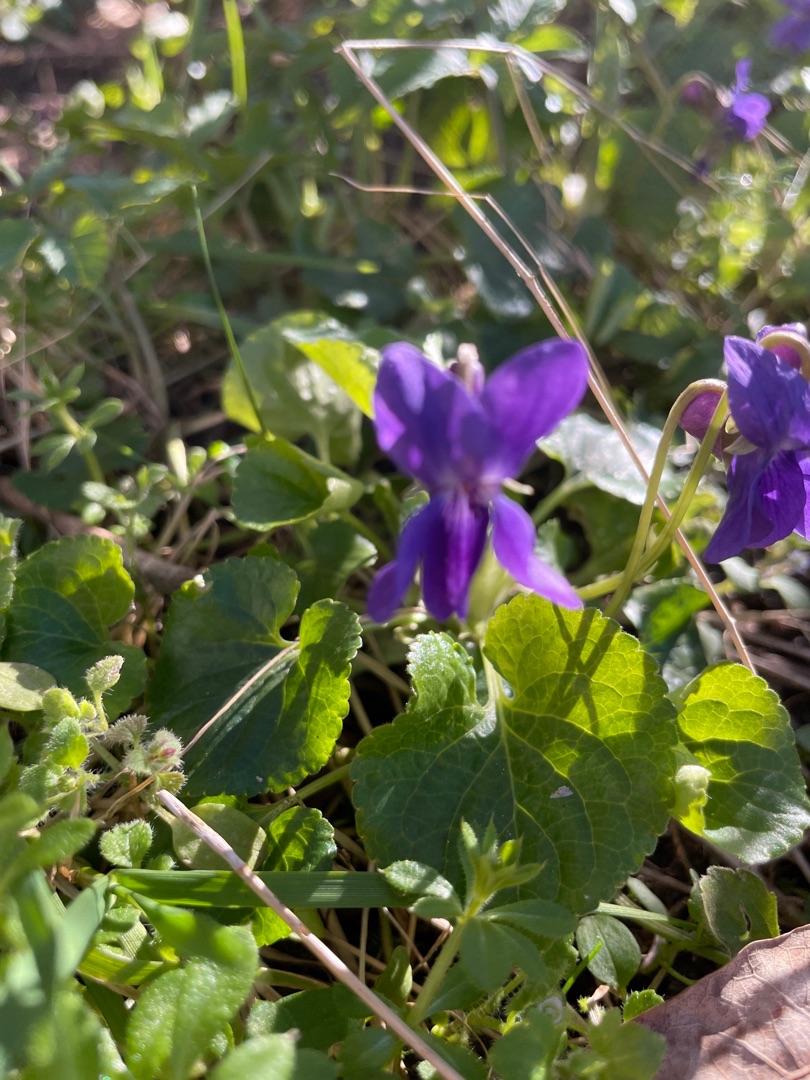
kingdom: Plantae
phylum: Tracheophyta
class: Magnoliopsida
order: Malpighiales
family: Violaceae
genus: Viola
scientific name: Viola odorata
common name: Marts-viol
